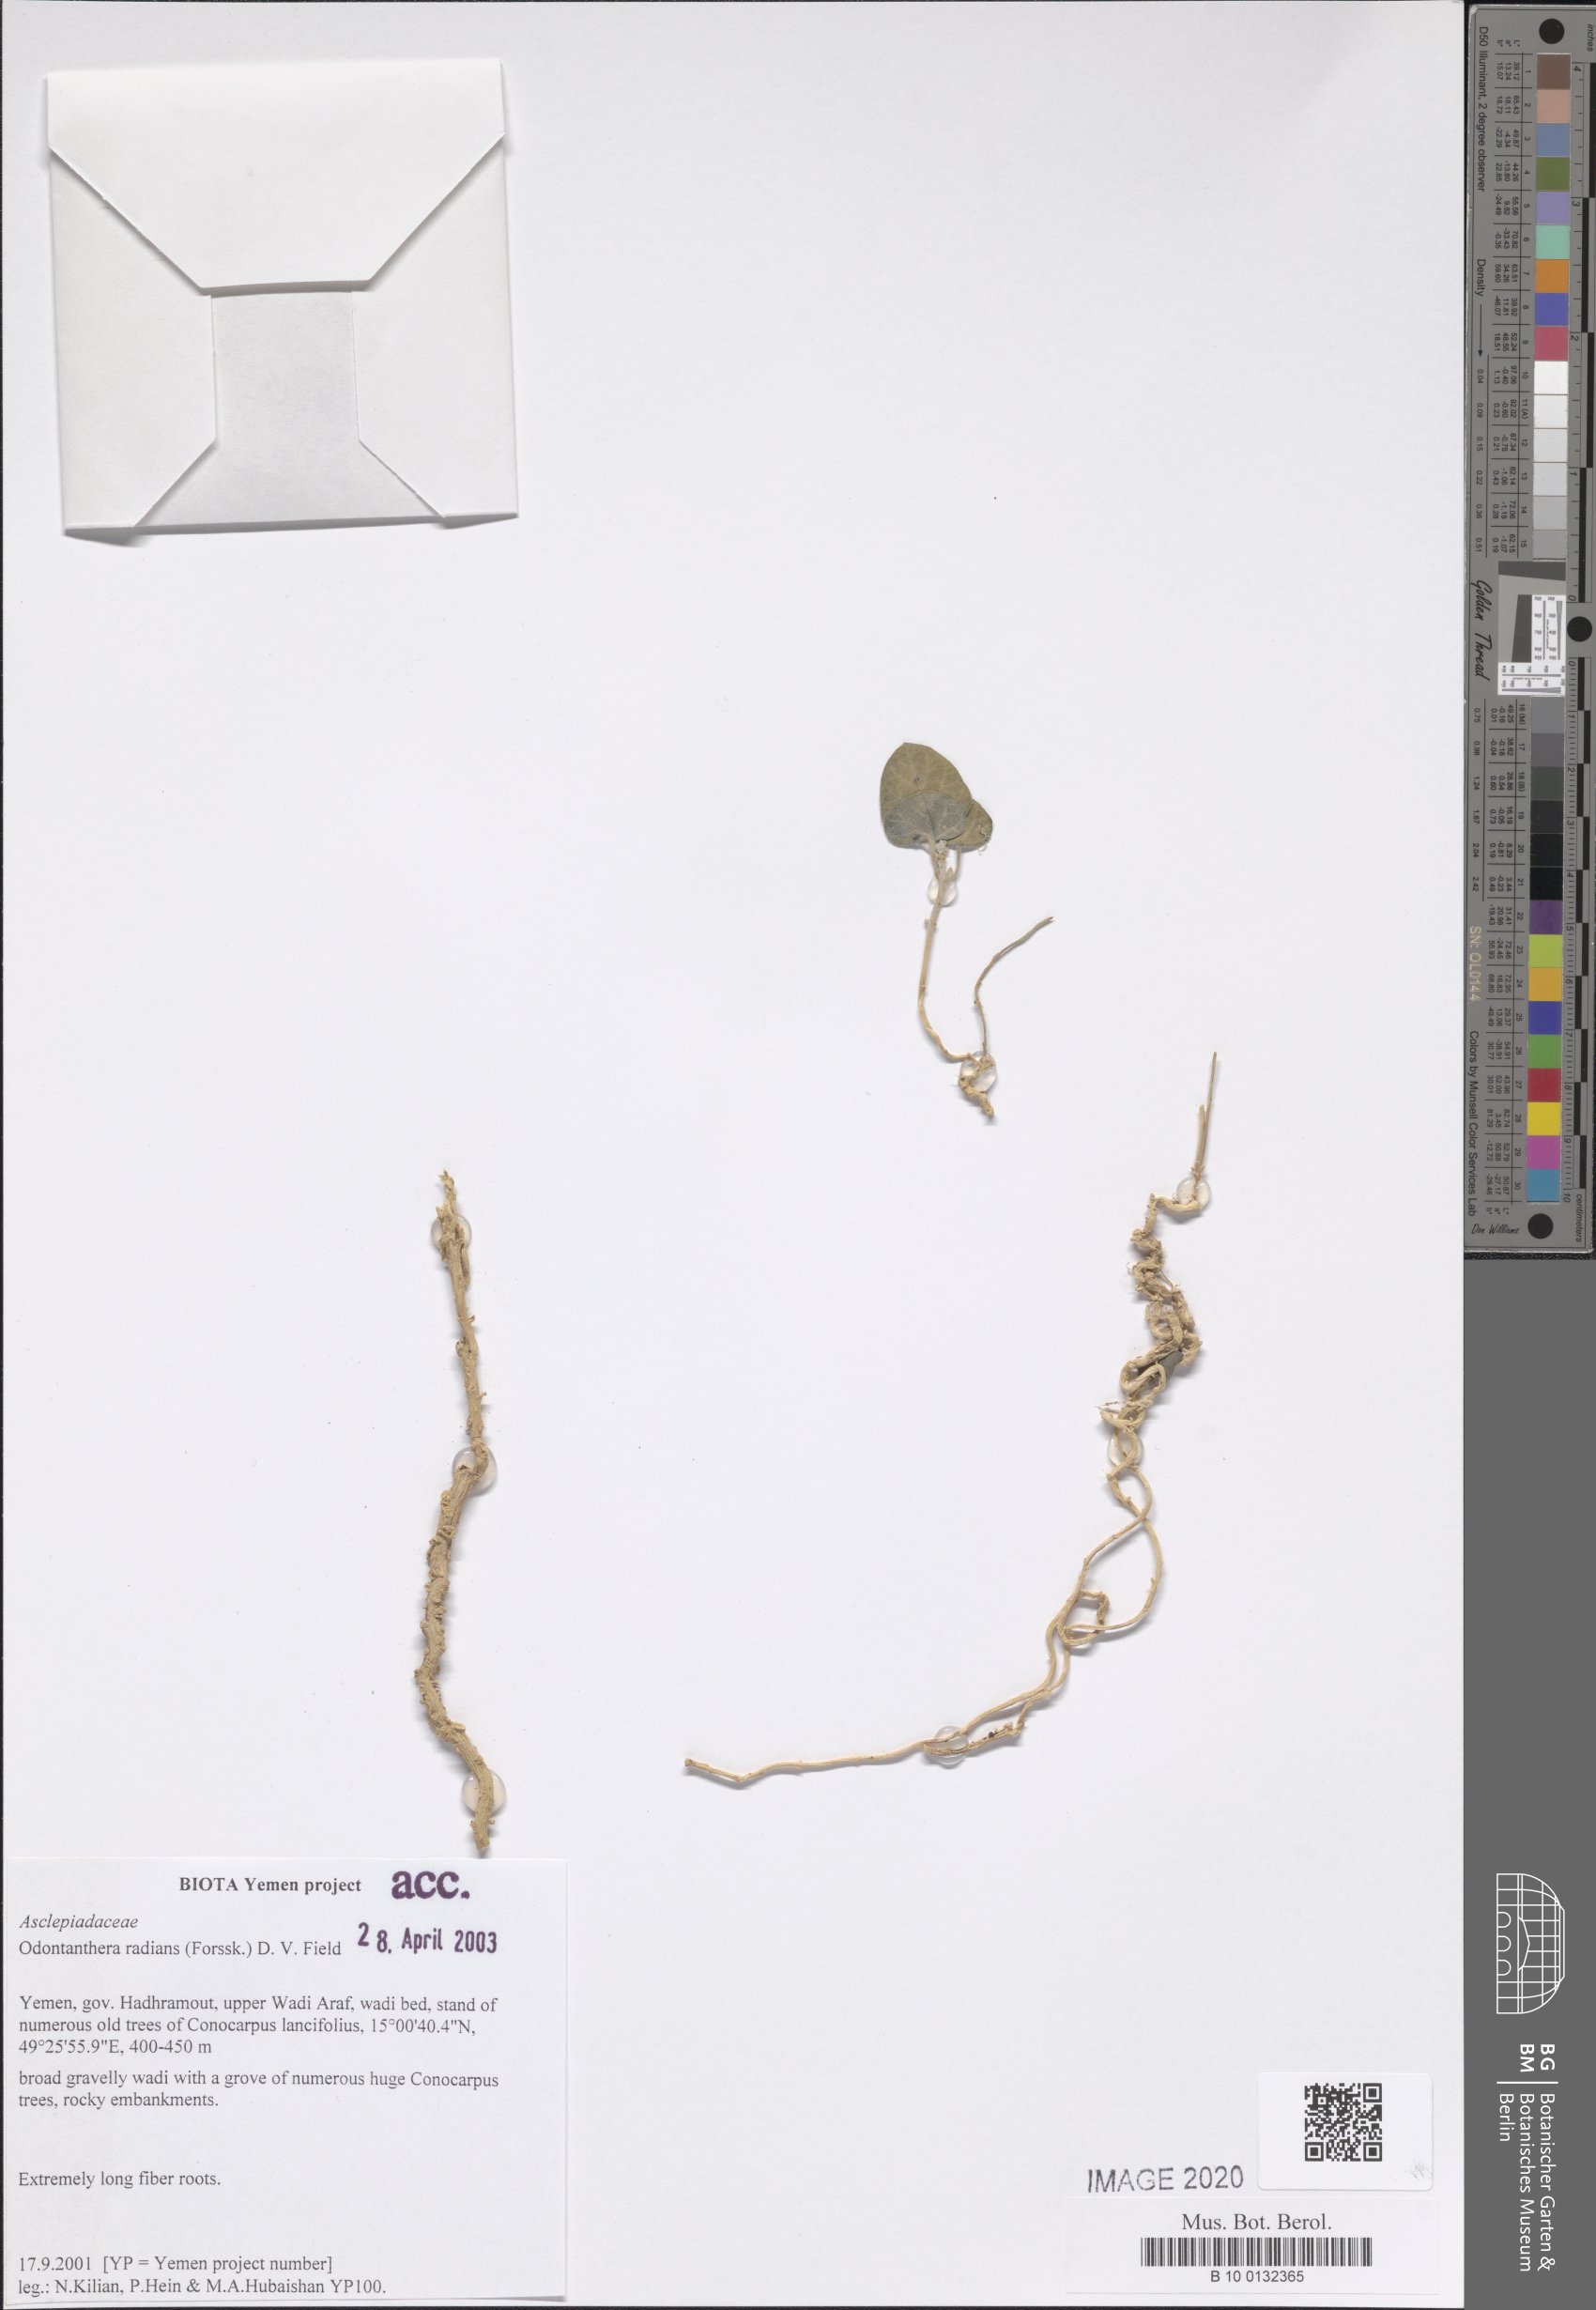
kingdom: Plantae
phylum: Tracheophyta
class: Magnoliopsida
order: Gentianales
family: Apocynaceae
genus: Cynanchum
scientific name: Cynanchum radians
